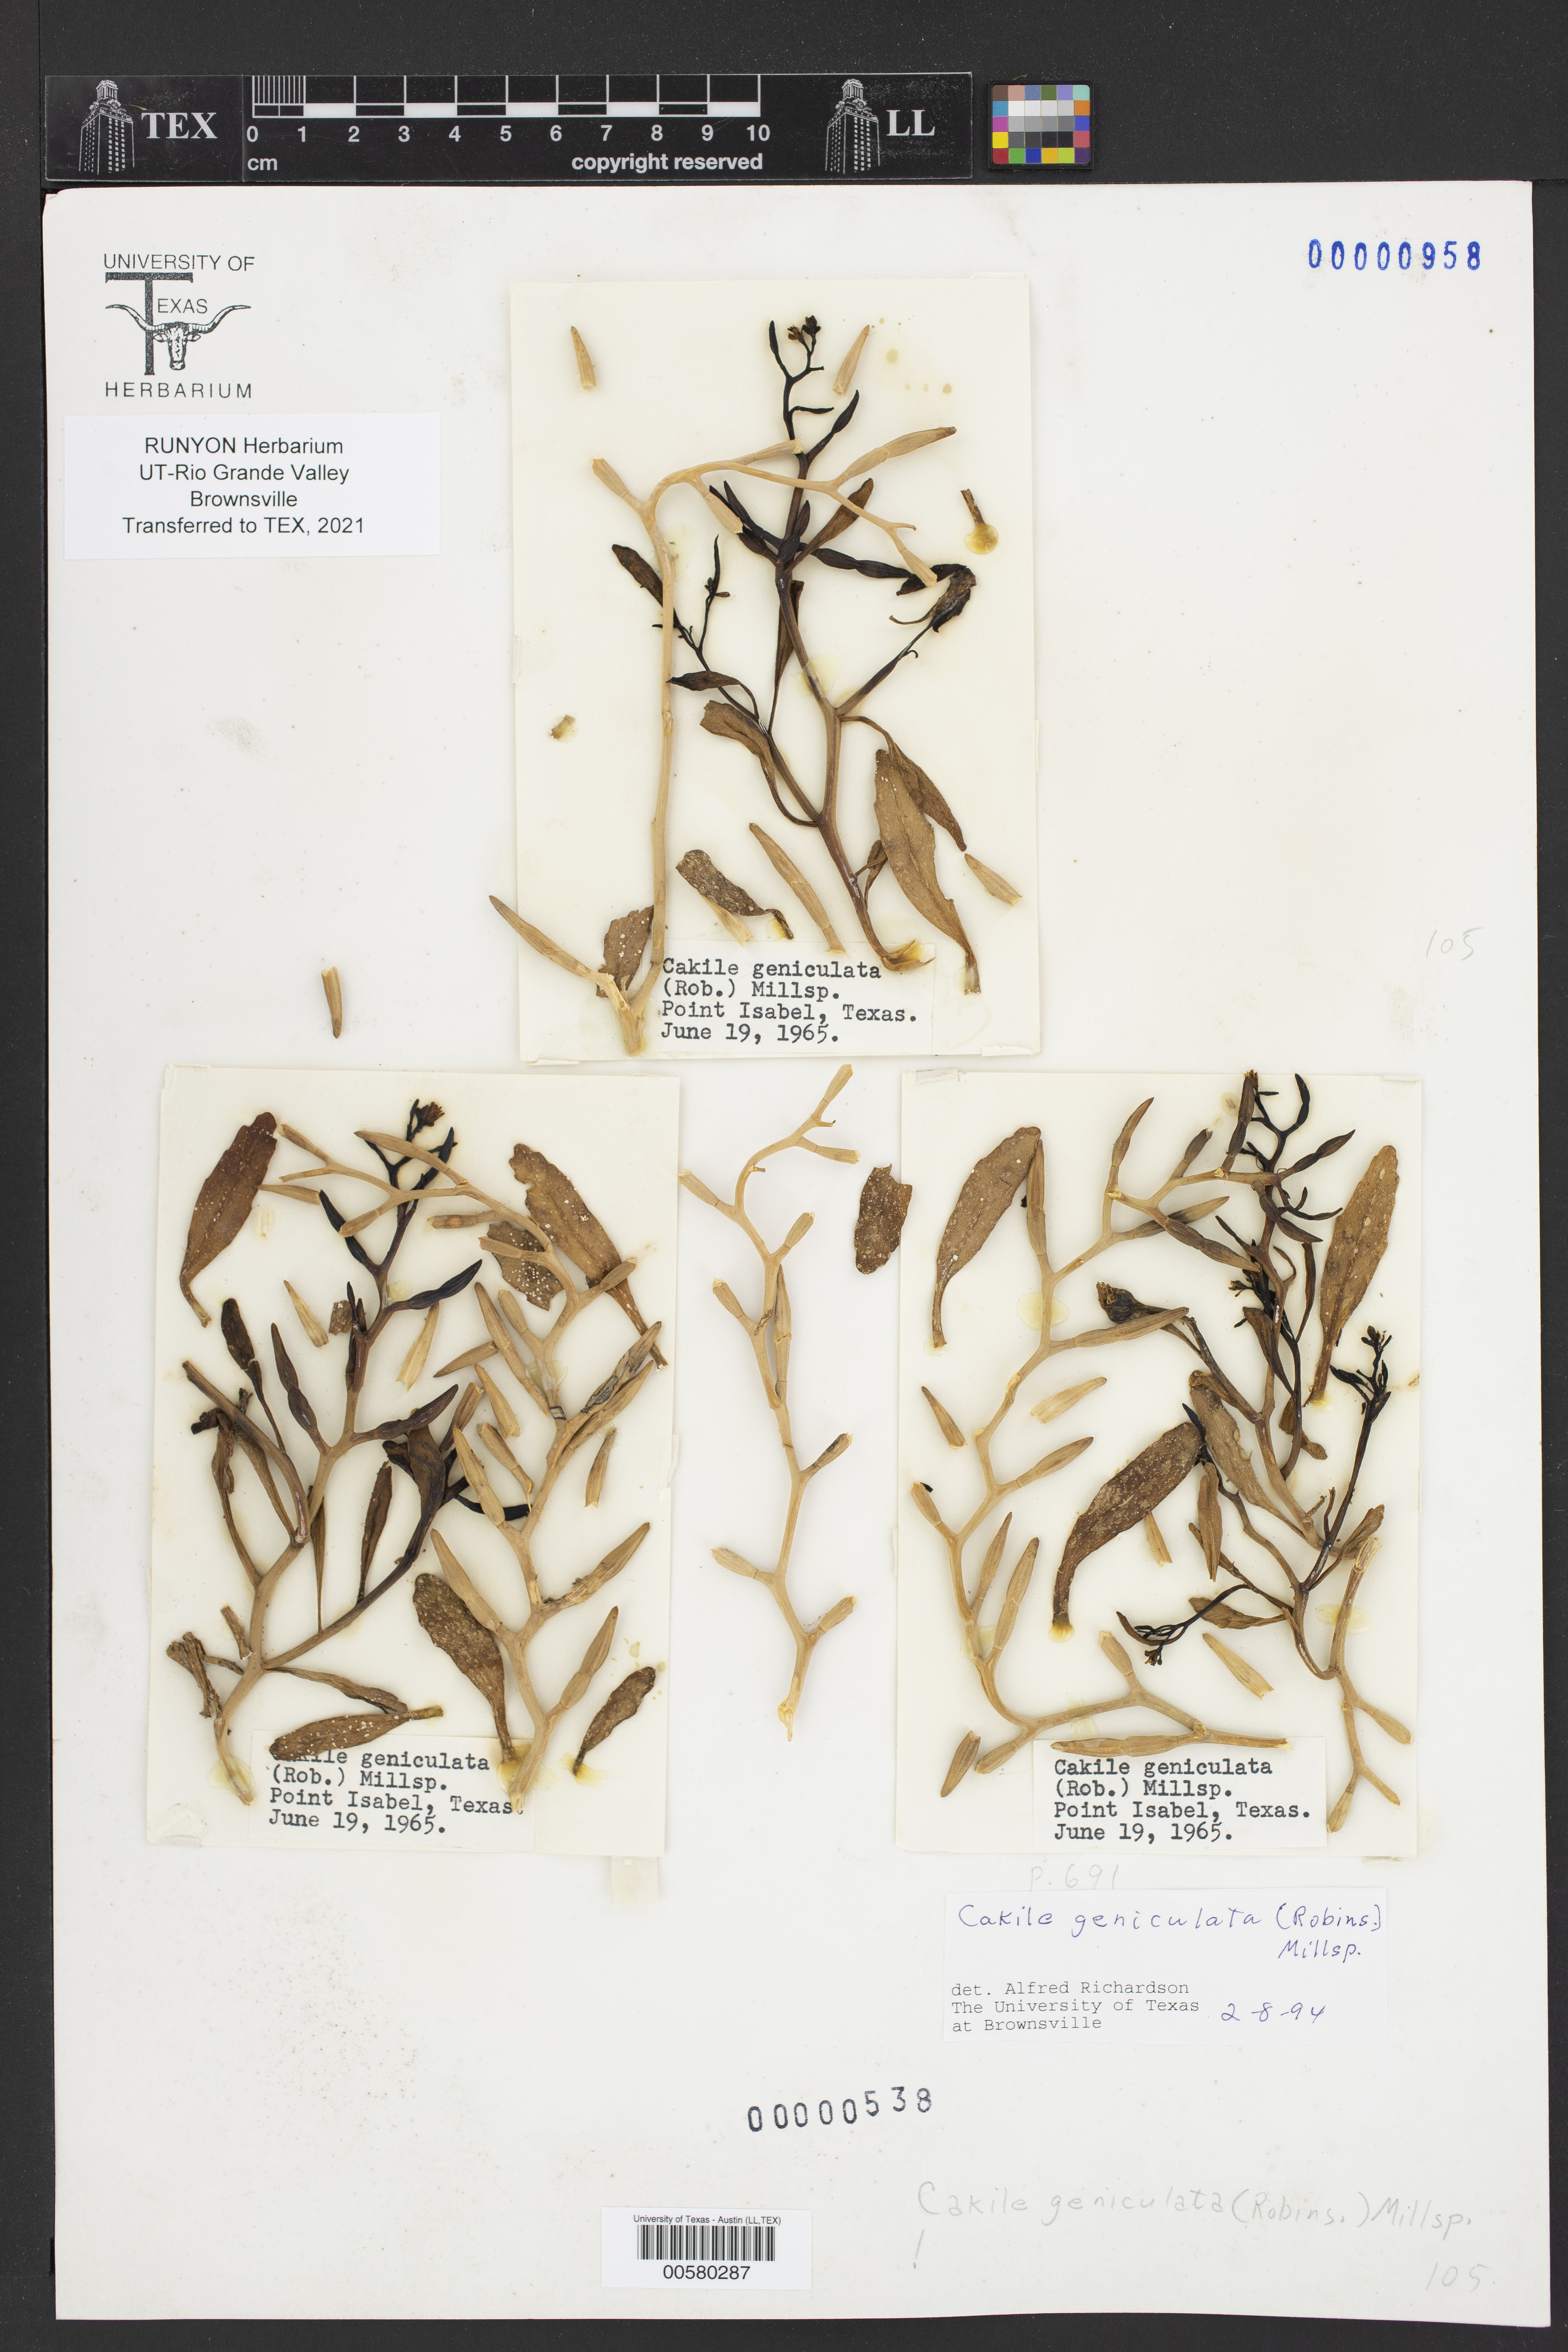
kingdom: Plantae
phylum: Tracheophyta
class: Magnoliopsida
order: Brassicales
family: Brassicaceae
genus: Cakile
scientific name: Cakile geniculata
